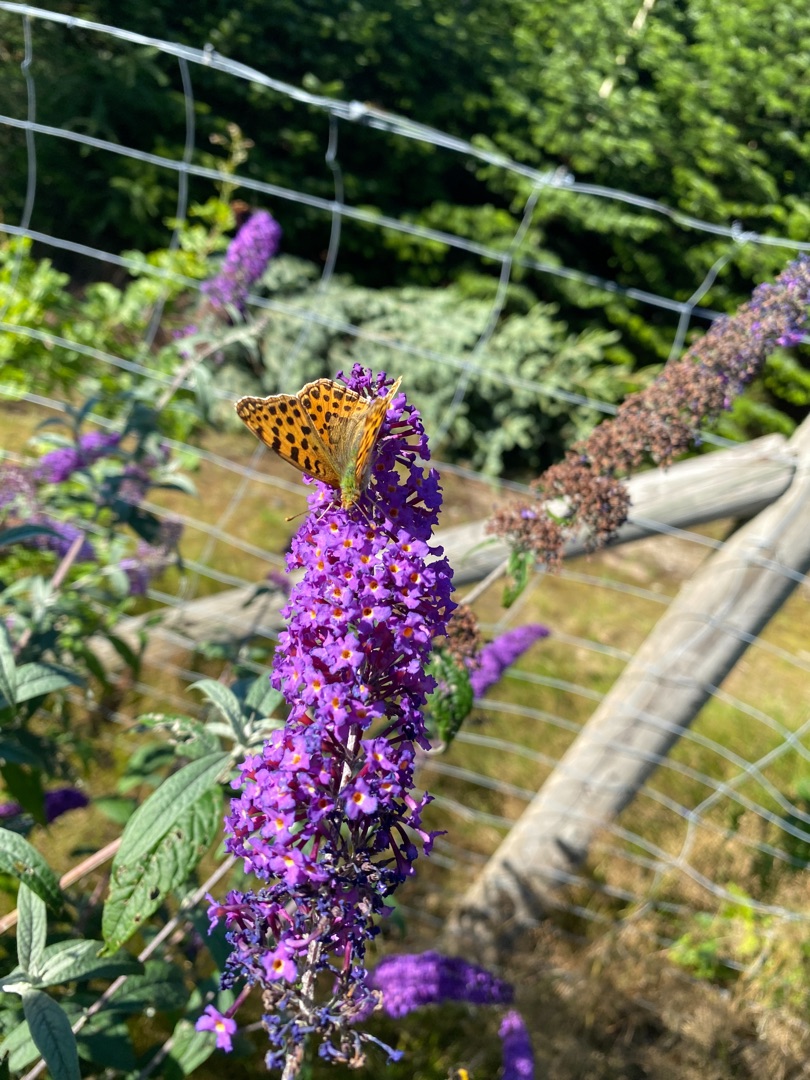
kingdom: Animalia
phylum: Arthropoda
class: Insecta
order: Lepidoptera
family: Nymphalidae
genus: Issoria
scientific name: Issoria lathonia
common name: Storplettet perlemorsommerfugl
